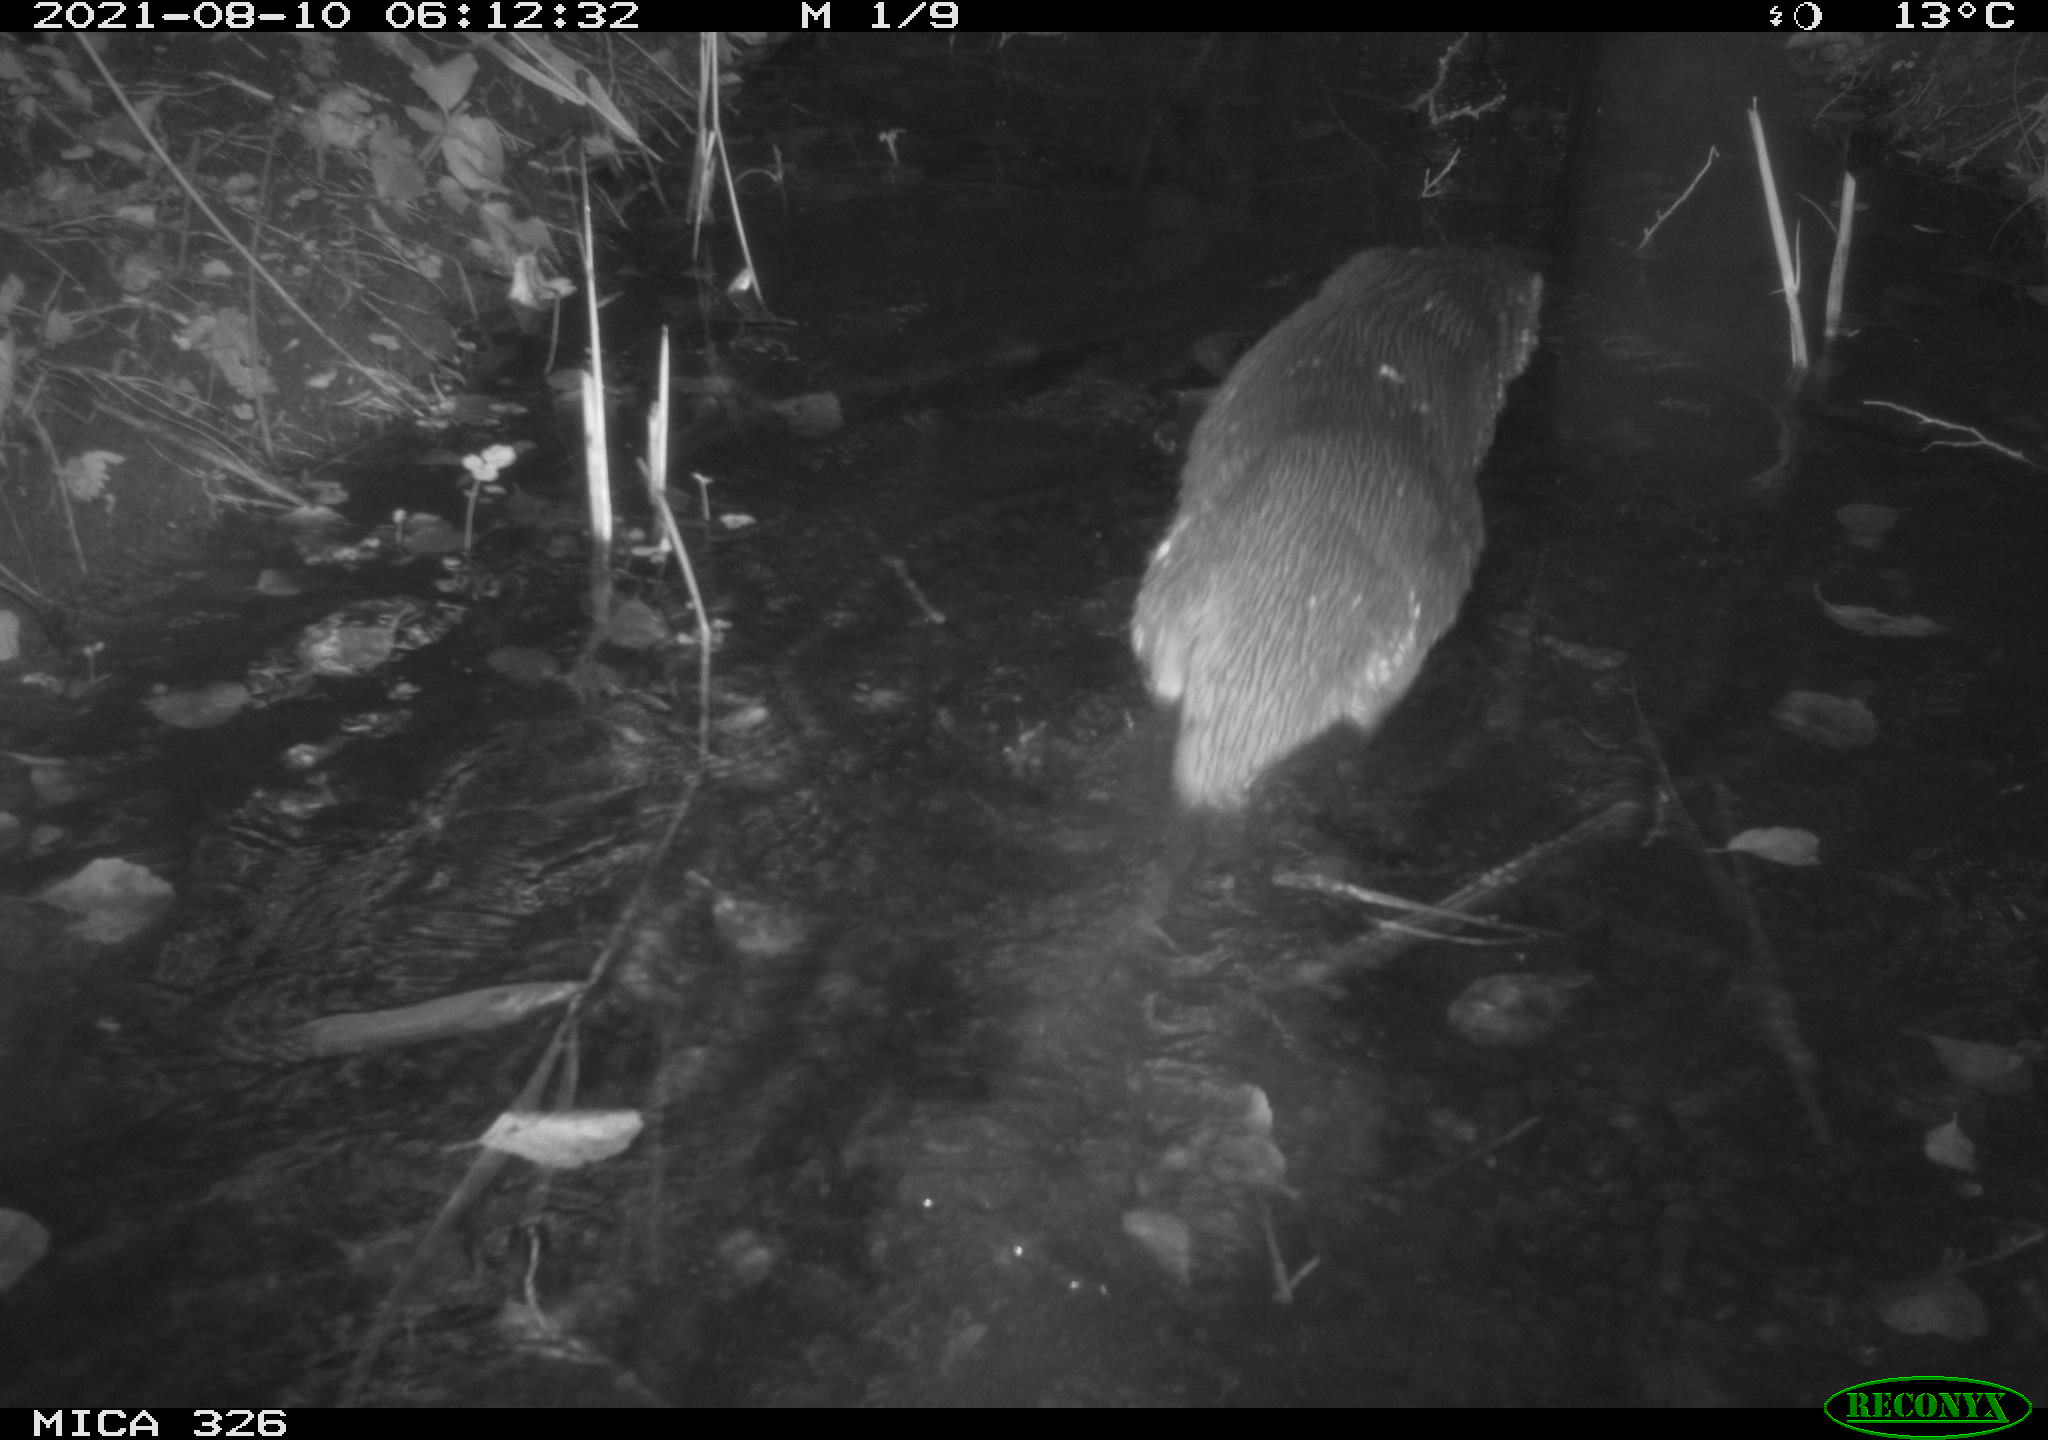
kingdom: Animalia
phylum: Chordata
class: Mammalia
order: Carnivora
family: Mustelidae
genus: Lutra
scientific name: Lutra lutra
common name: European otter
